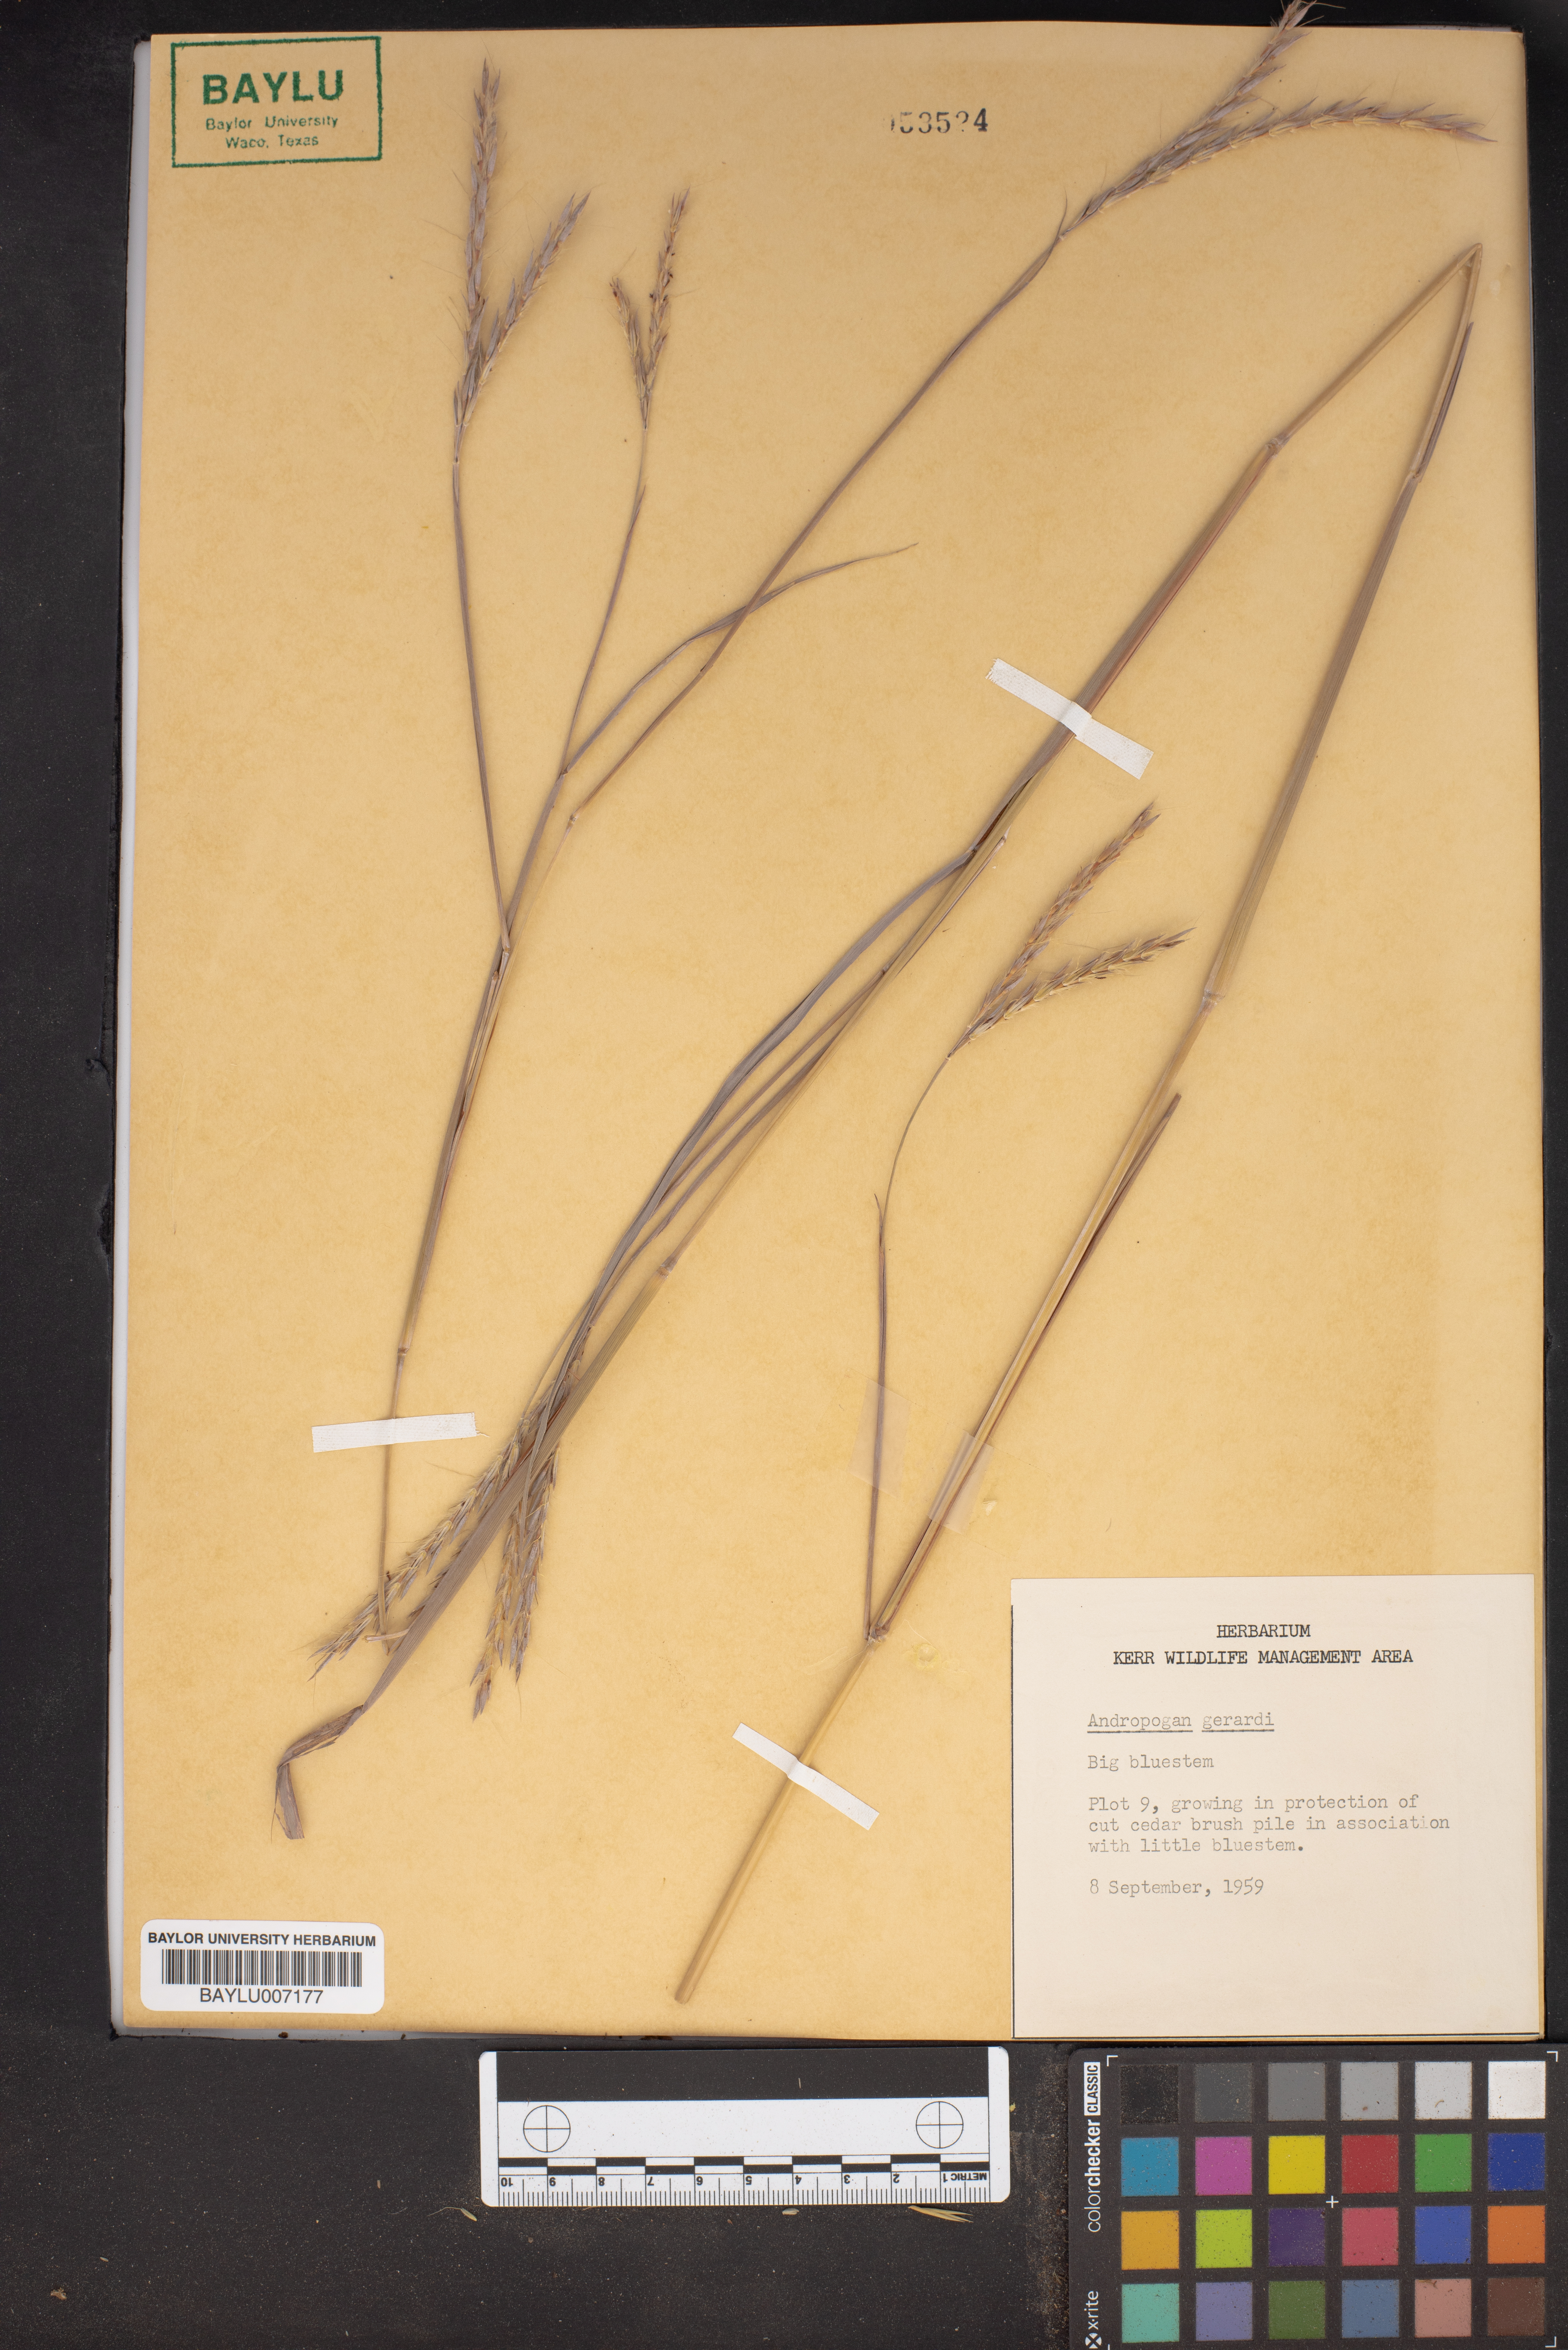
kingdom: Plantae
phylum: Tracheophyta
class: Liliopsida
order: Poales
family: Poaceae
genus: Andropogon
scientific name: Andropogon gerardi
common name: Big bluestem
